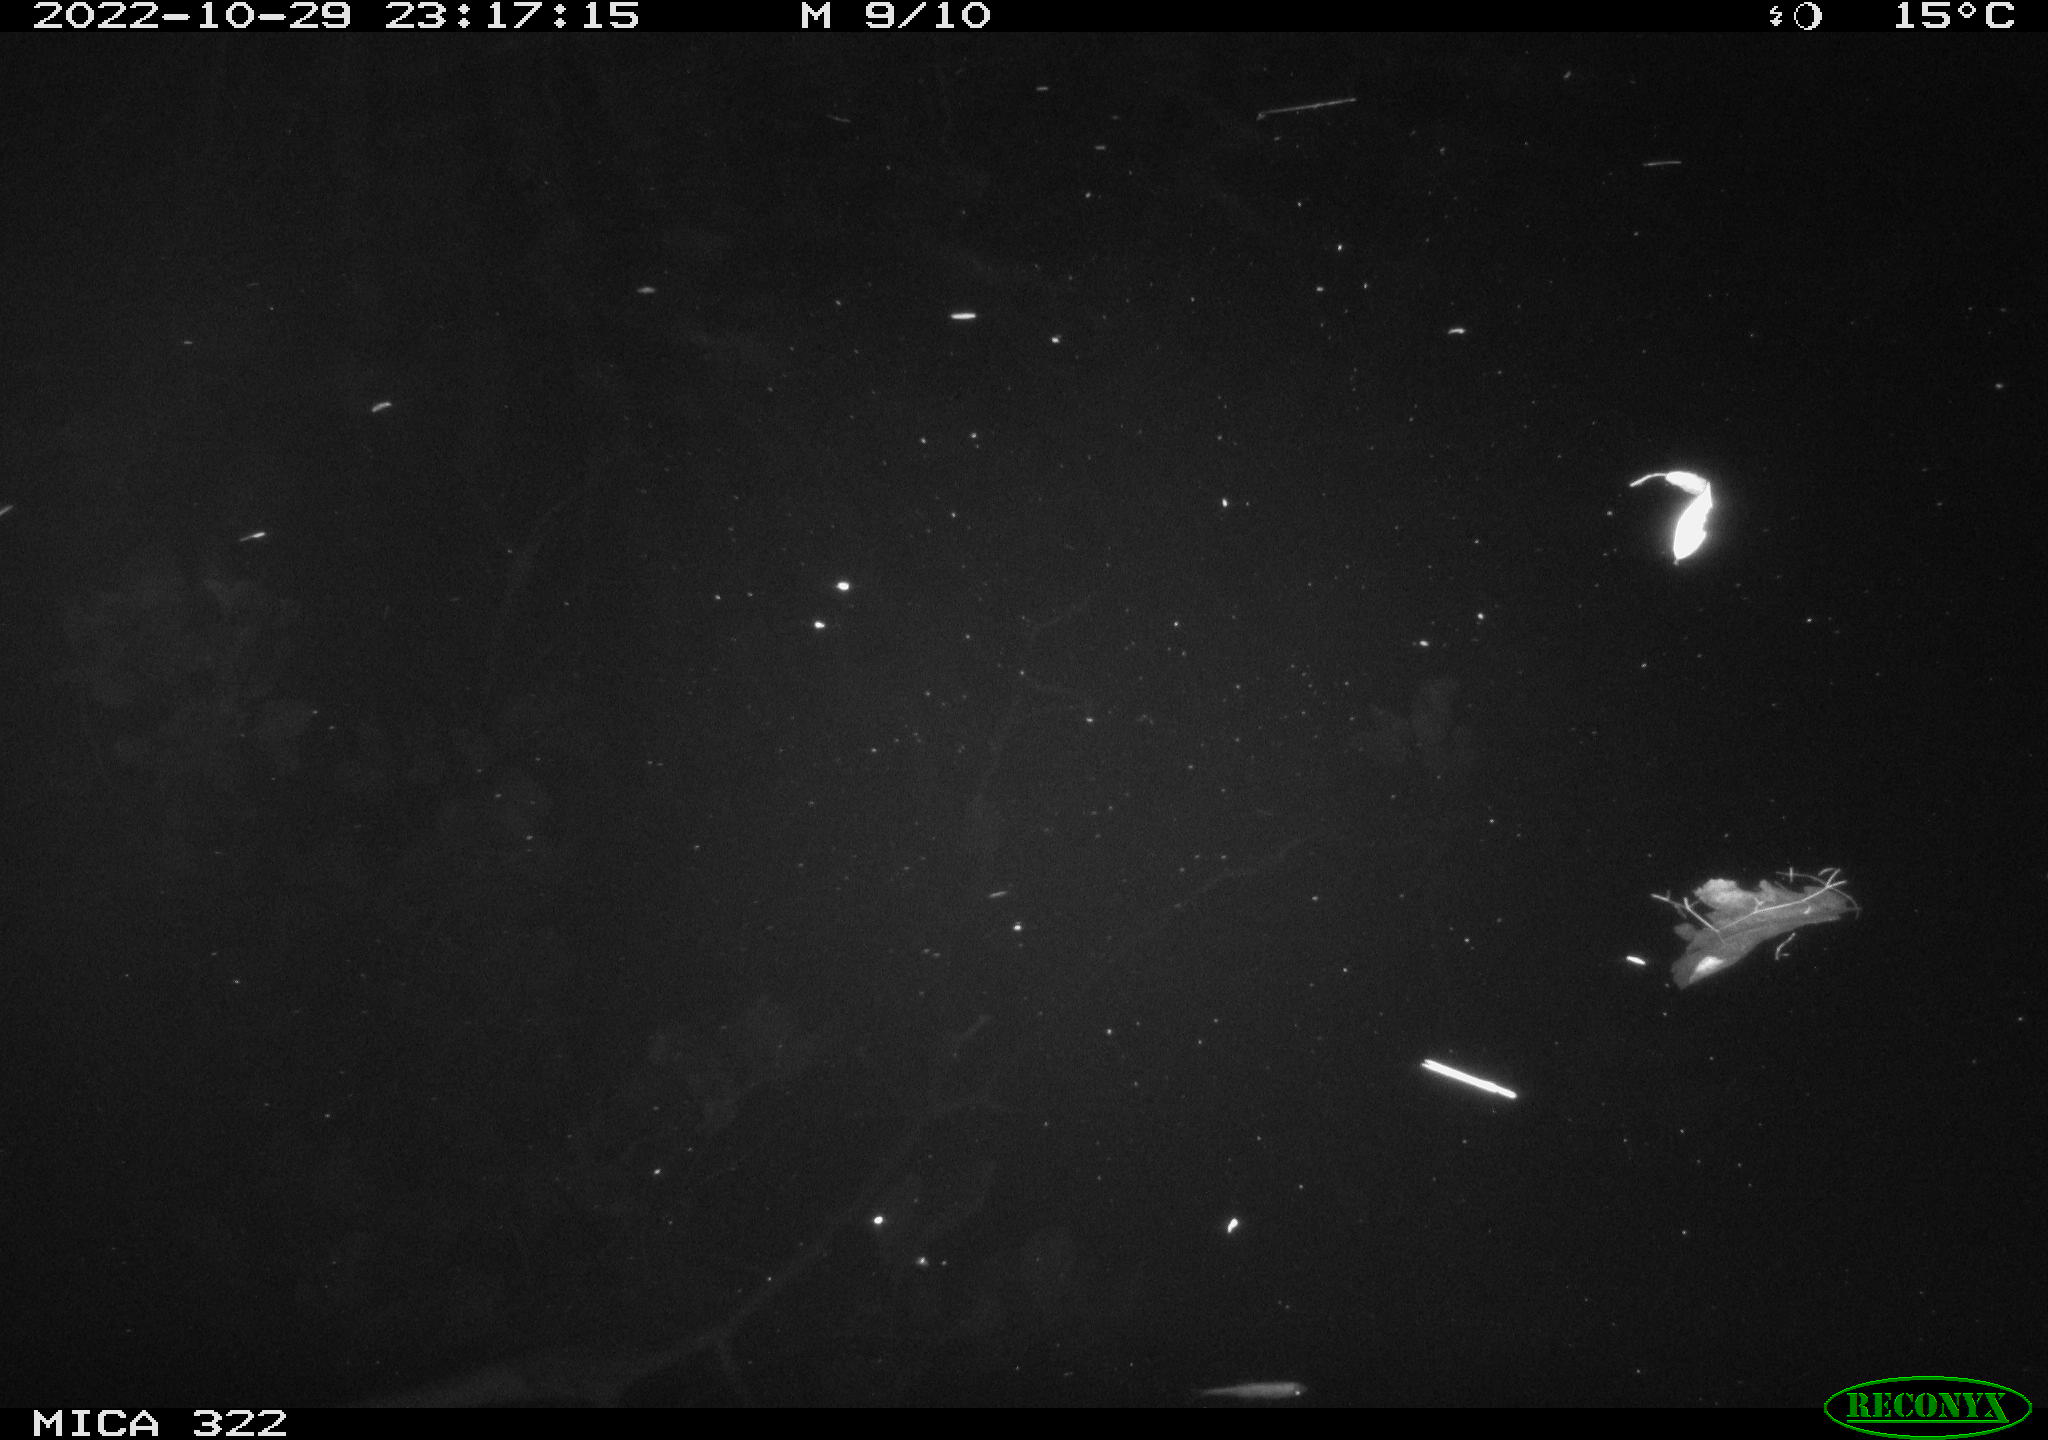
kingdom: Animalia
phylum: Chordata
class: Mammalia
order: Rodentia
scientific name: Rodentia
